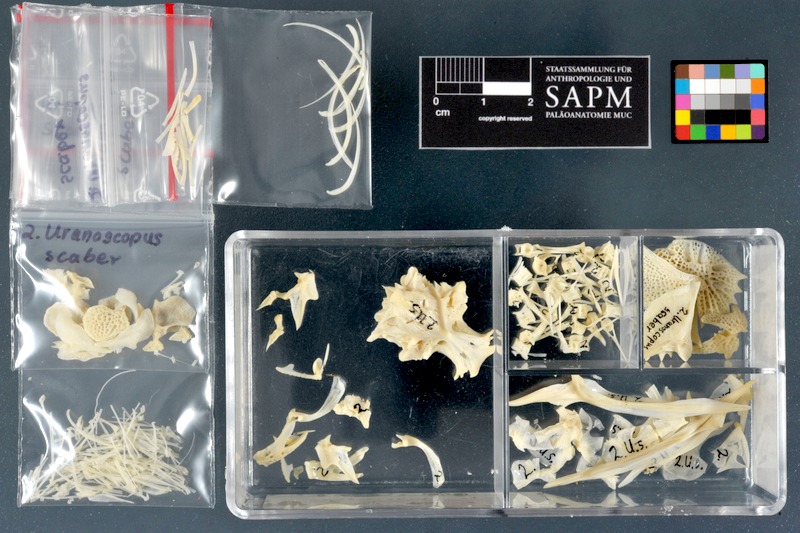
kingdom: Animalia
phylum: Chordata
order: Perciformes
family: Uranoscopidae
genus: Uranoscopus
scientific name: Uranoscopus scaber
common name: Stargazer
